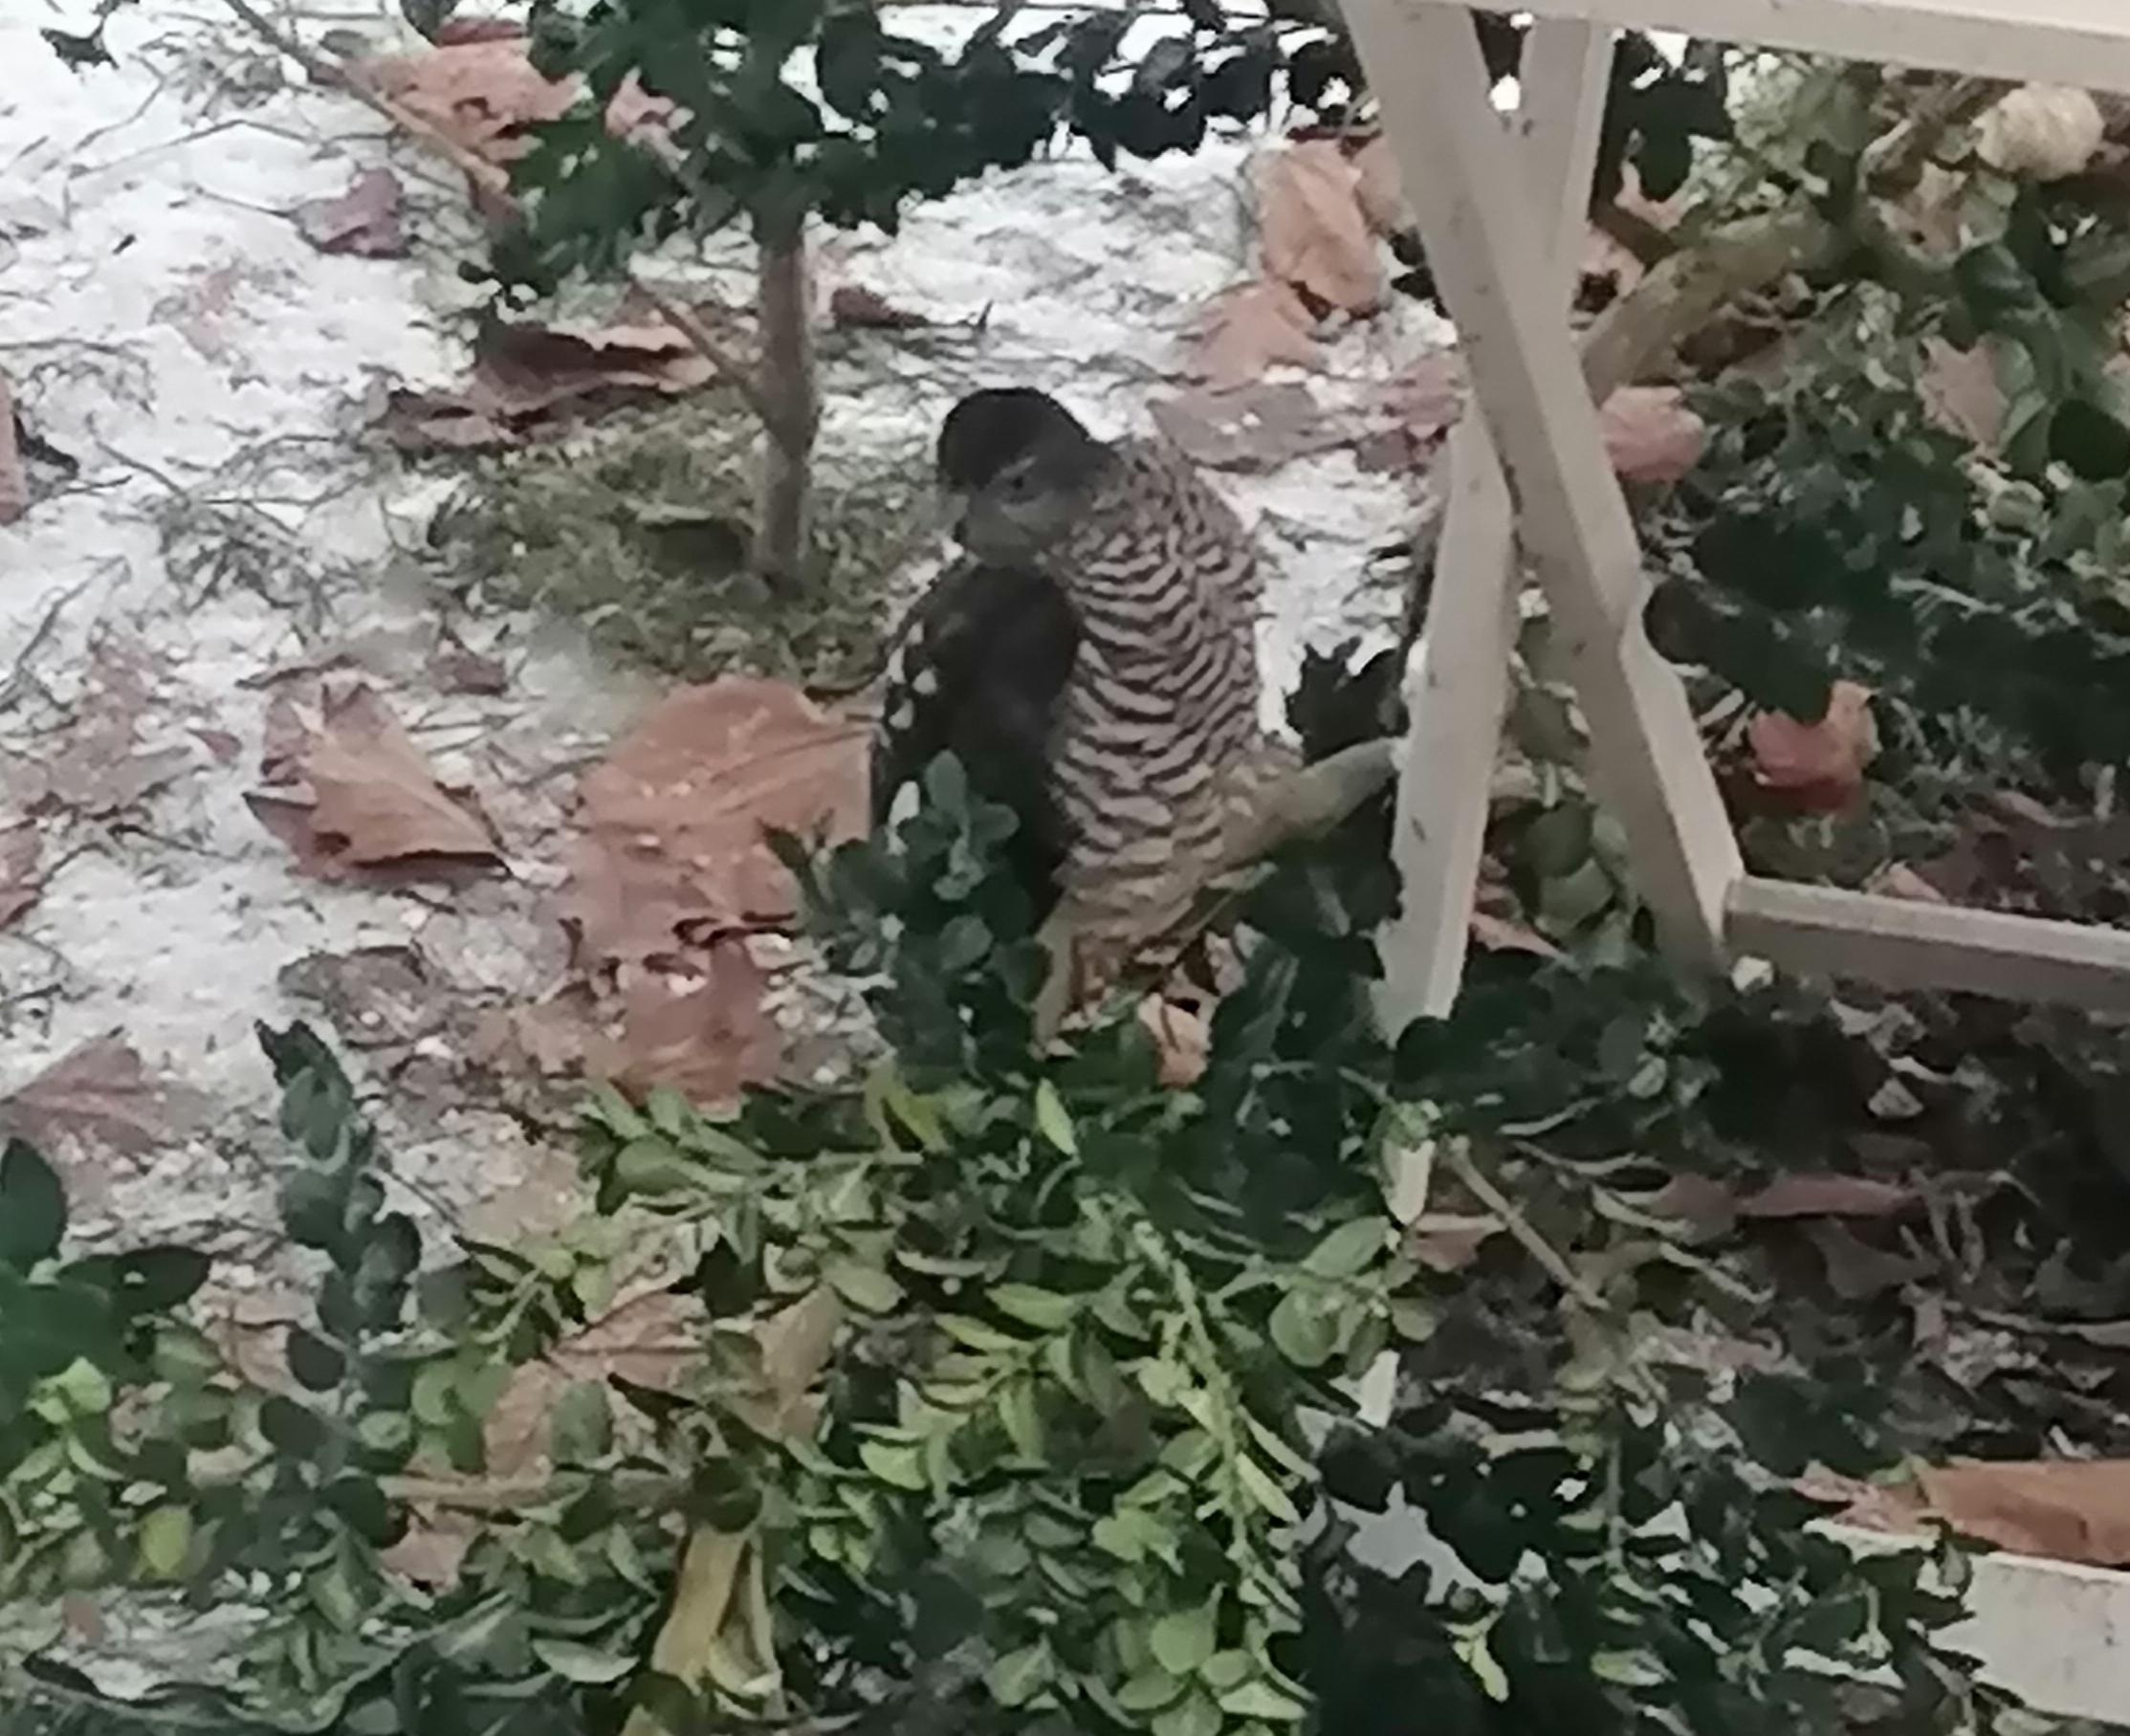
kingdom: Animalia
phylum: Chordata
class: Aves
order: Accipitriformes
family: Accipitridae
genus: Accipiter
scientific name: Accipiter nisus
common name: Spurvehøg
